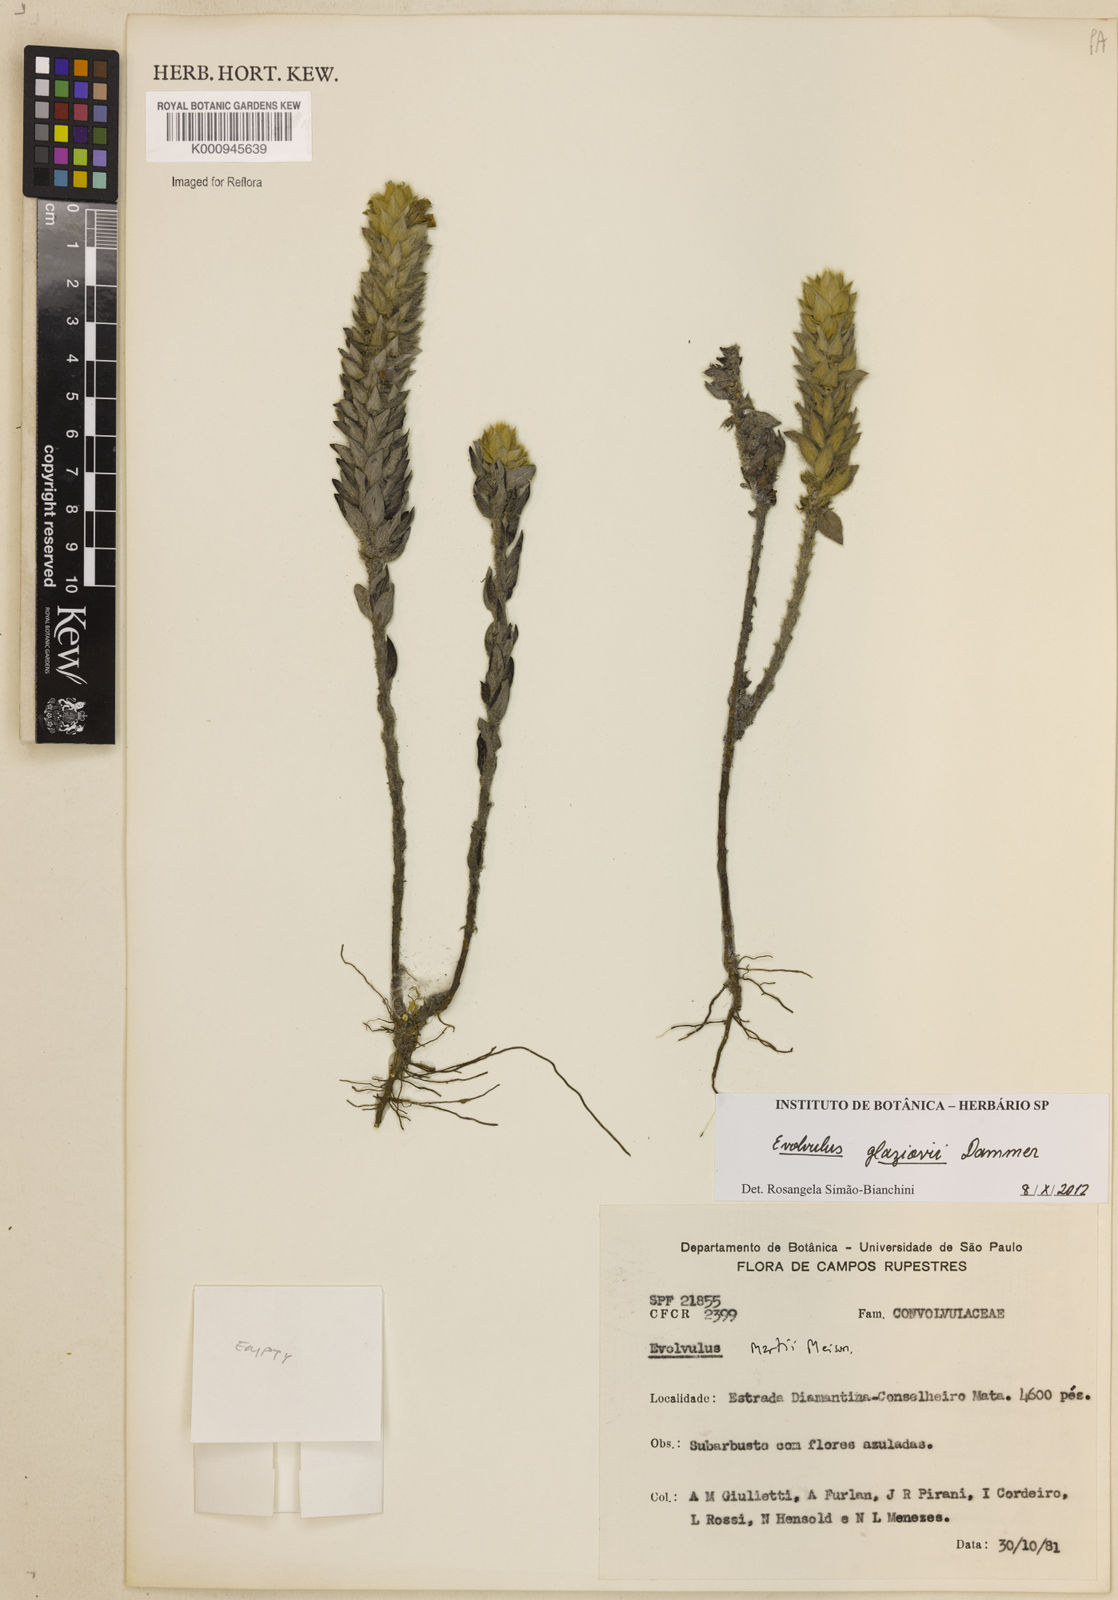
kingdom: Plantae
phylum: Tracheophyta
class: Magnoliopsida
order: Solanales
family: Convolvulaceae
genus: Evolvulus
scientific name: Evolvulus glaziovii
